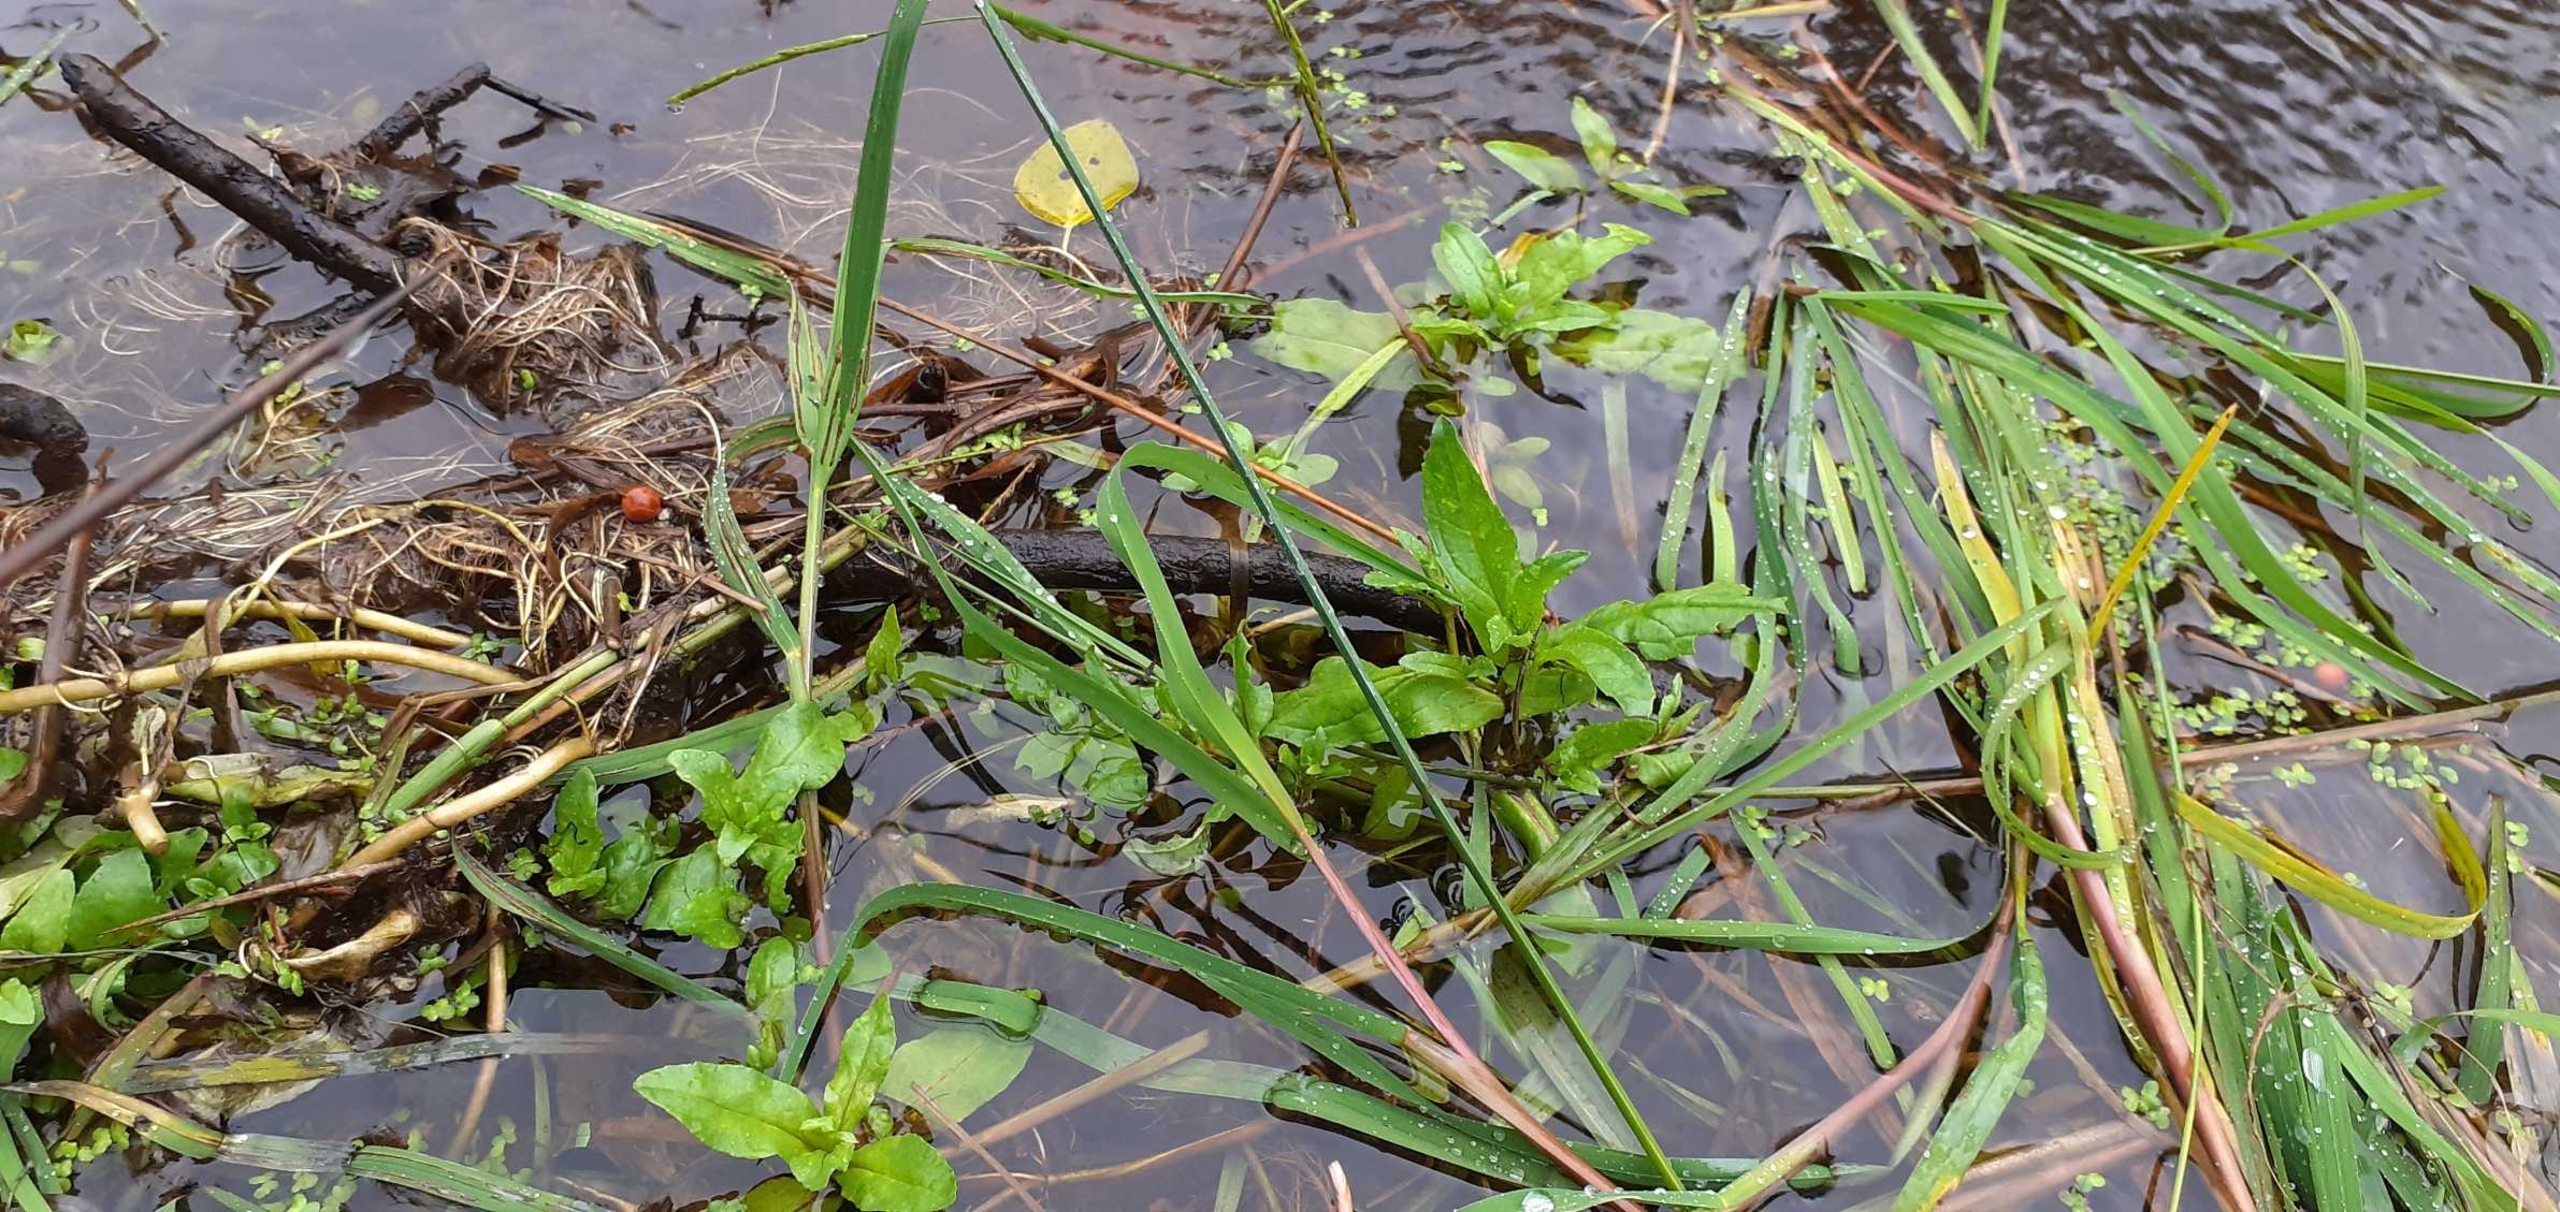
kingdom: Plantae
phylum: Tracheophyta
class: Magnoliopsida
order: Lamiales
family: Plantaginaceae
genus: Veronica
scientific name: Veronica
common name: Ærenprisslægten
